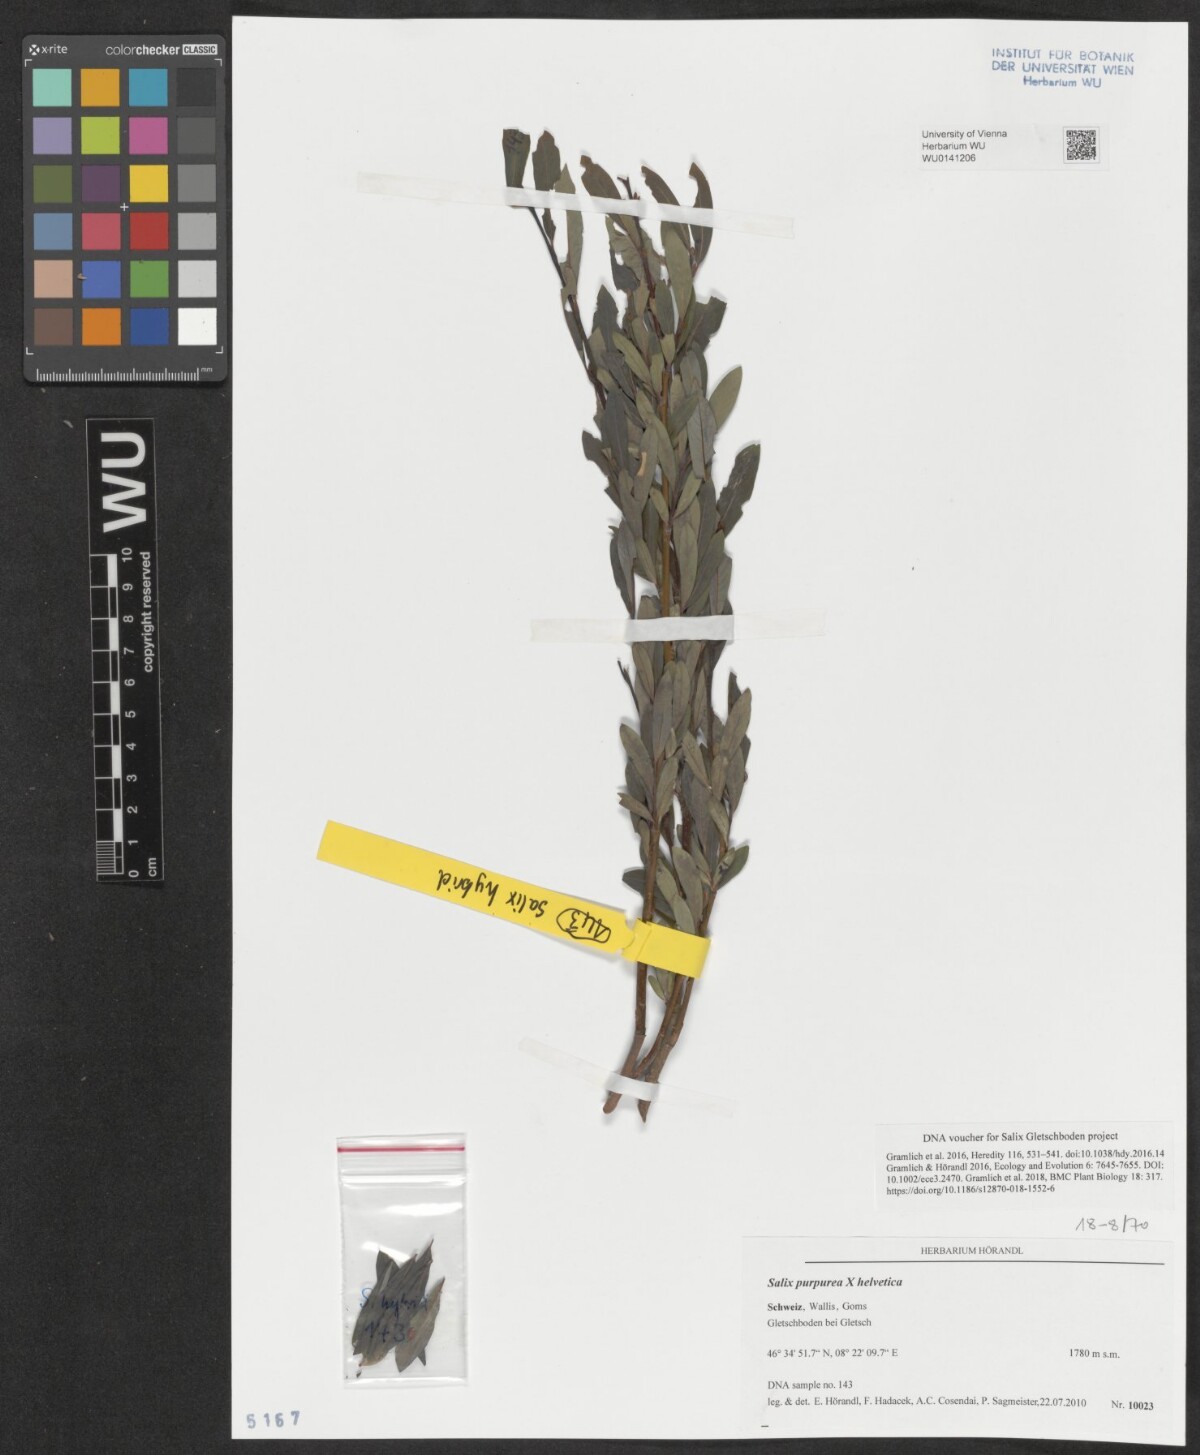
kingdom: Plantae
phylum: Tracheophyta
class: Magnoliopsida
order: Malpighiales
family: Salicaceae
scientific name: Salicaceae
